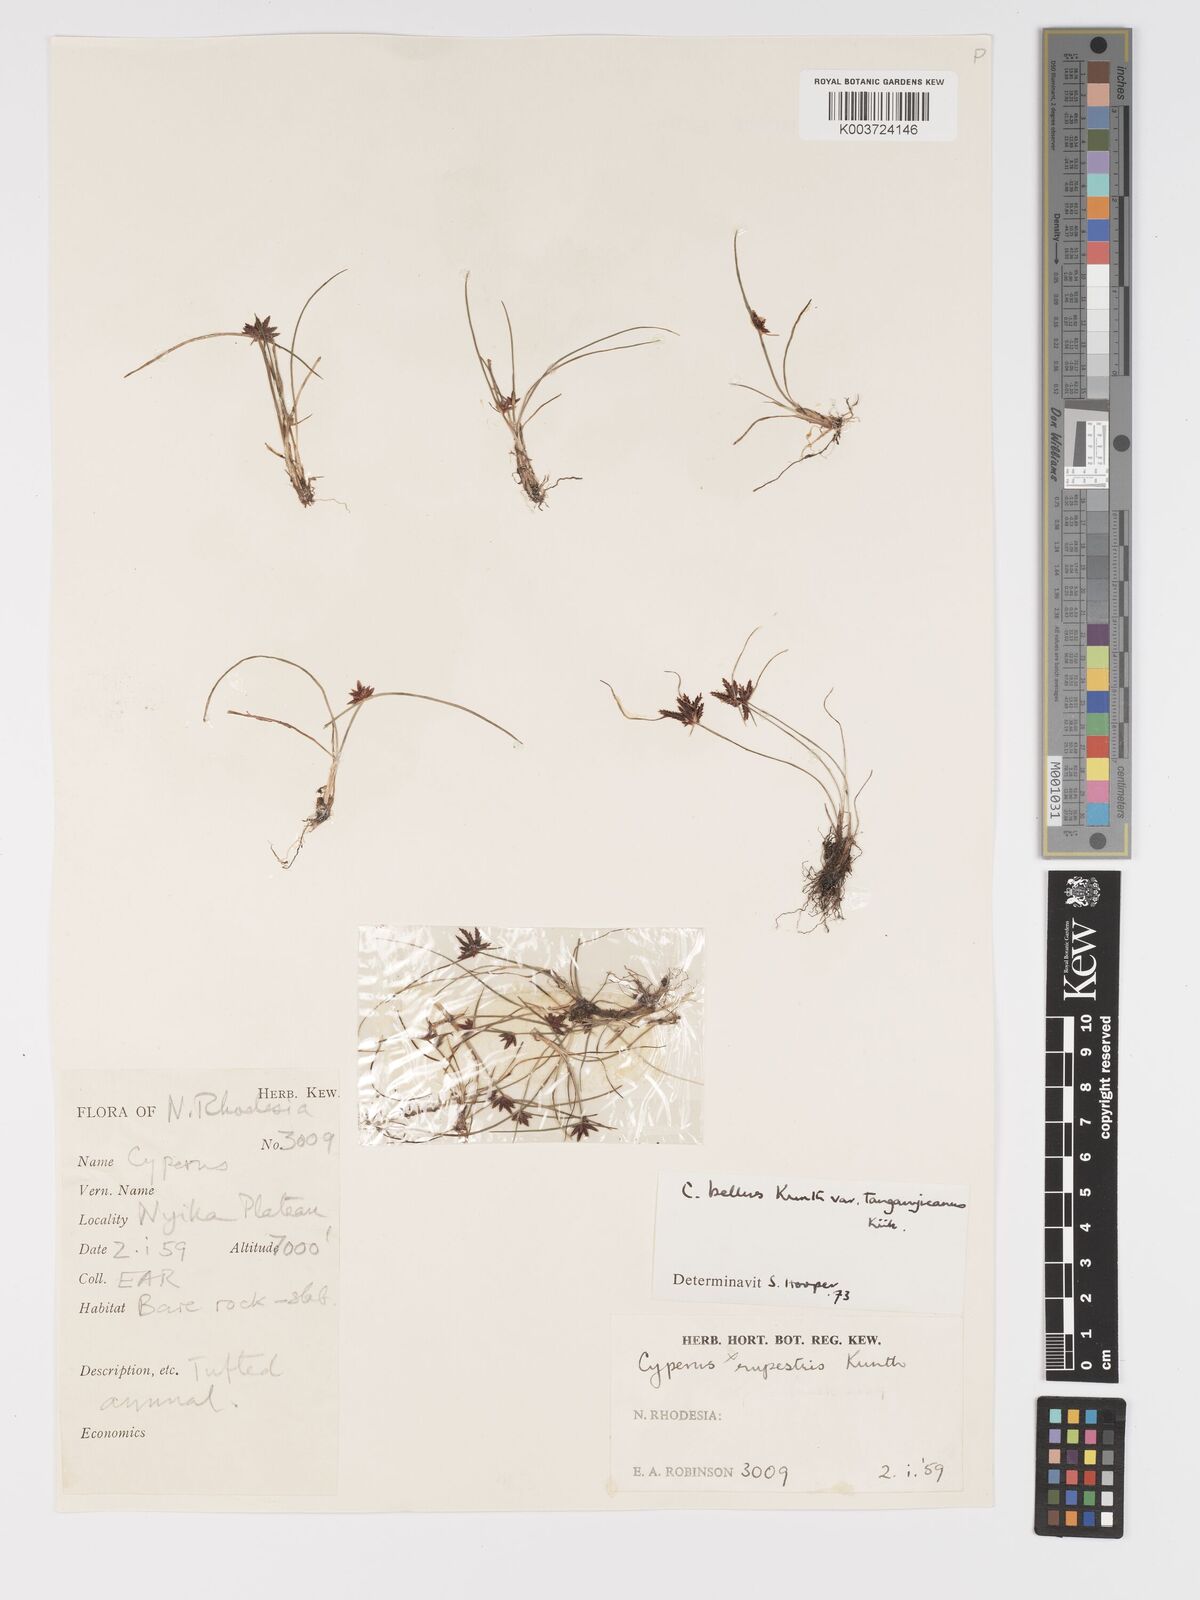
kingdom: Plantae
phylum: Tracheophyta
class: Liliopsida
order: Poales
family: Cyperaceae
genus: Cyperus
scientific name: Cyperus semitrifidus
